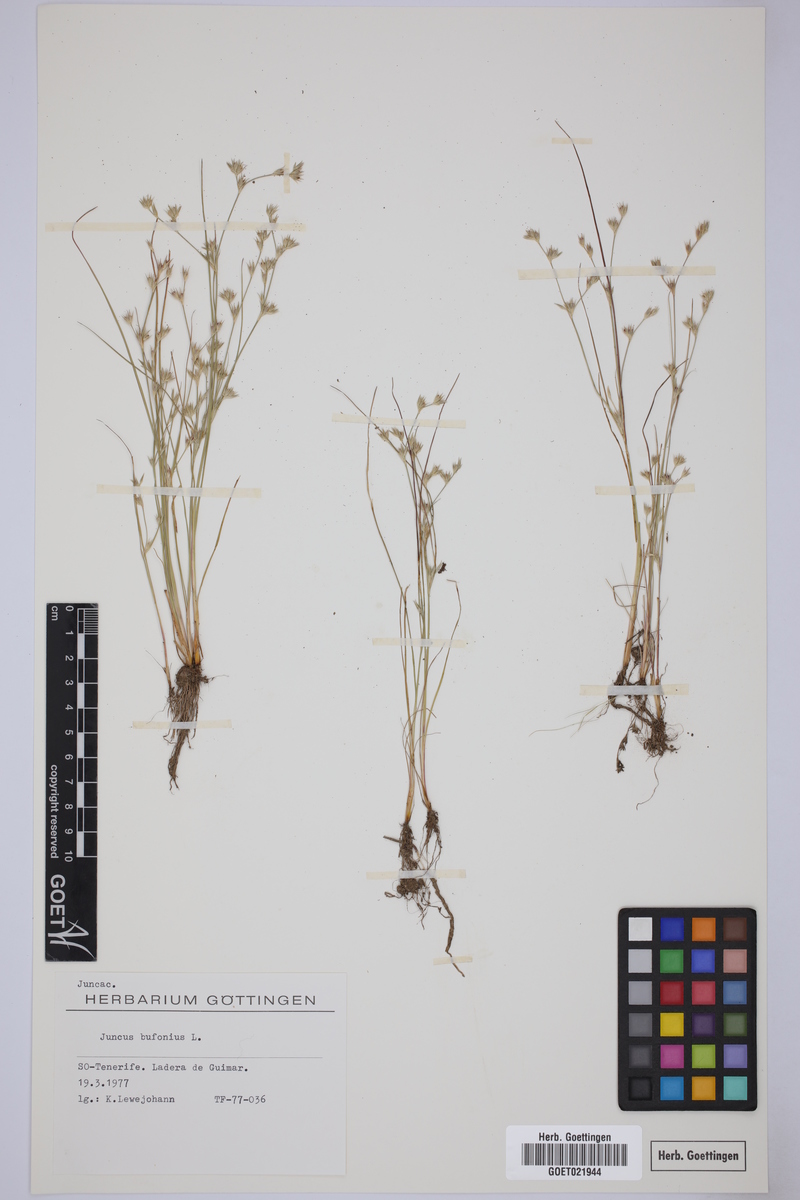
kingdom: Plantae
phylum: Tracheophyta
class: Liliopsida
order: Poales
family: Juncaceae
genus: Juncus
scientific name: Juncus bufonius
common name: Toad rush
